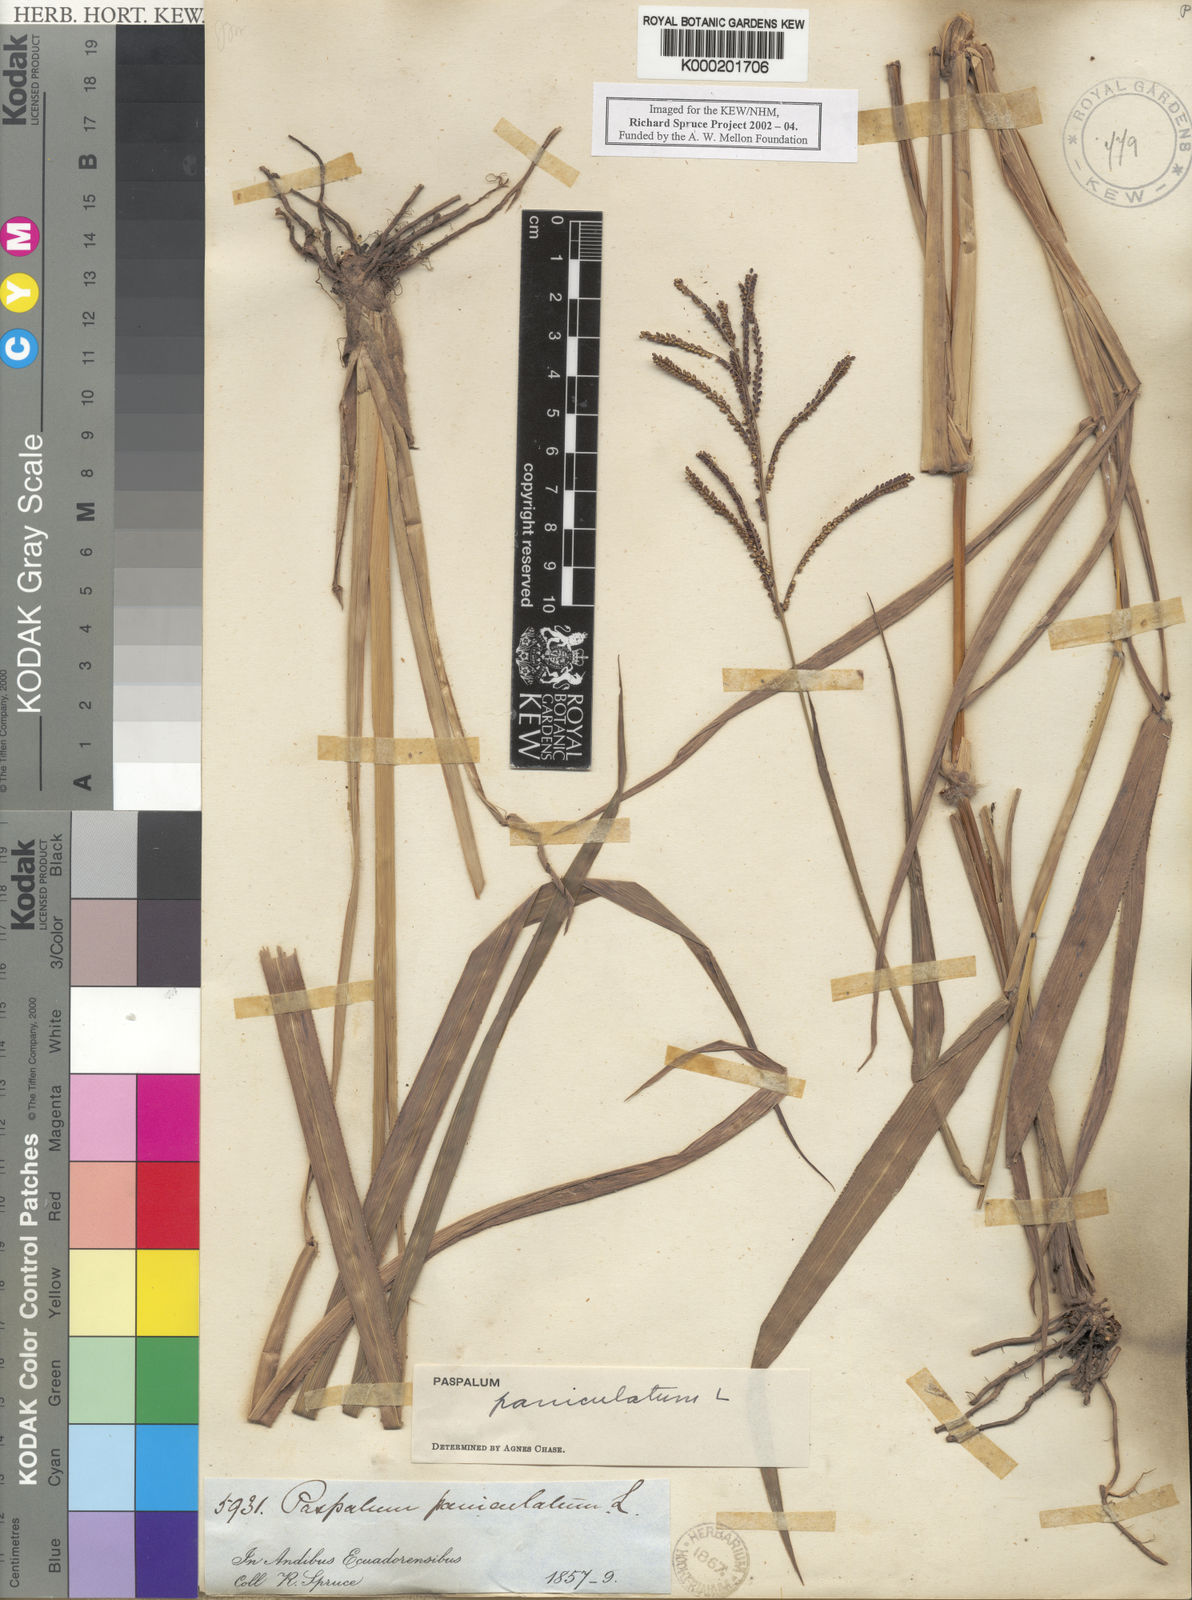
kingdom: Plantae
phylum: Tracheophyta
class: Liliopsida
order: Poales
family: Poaceae
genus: Paspalum
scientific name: Paspalum paniculatum
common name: Arrocillo
